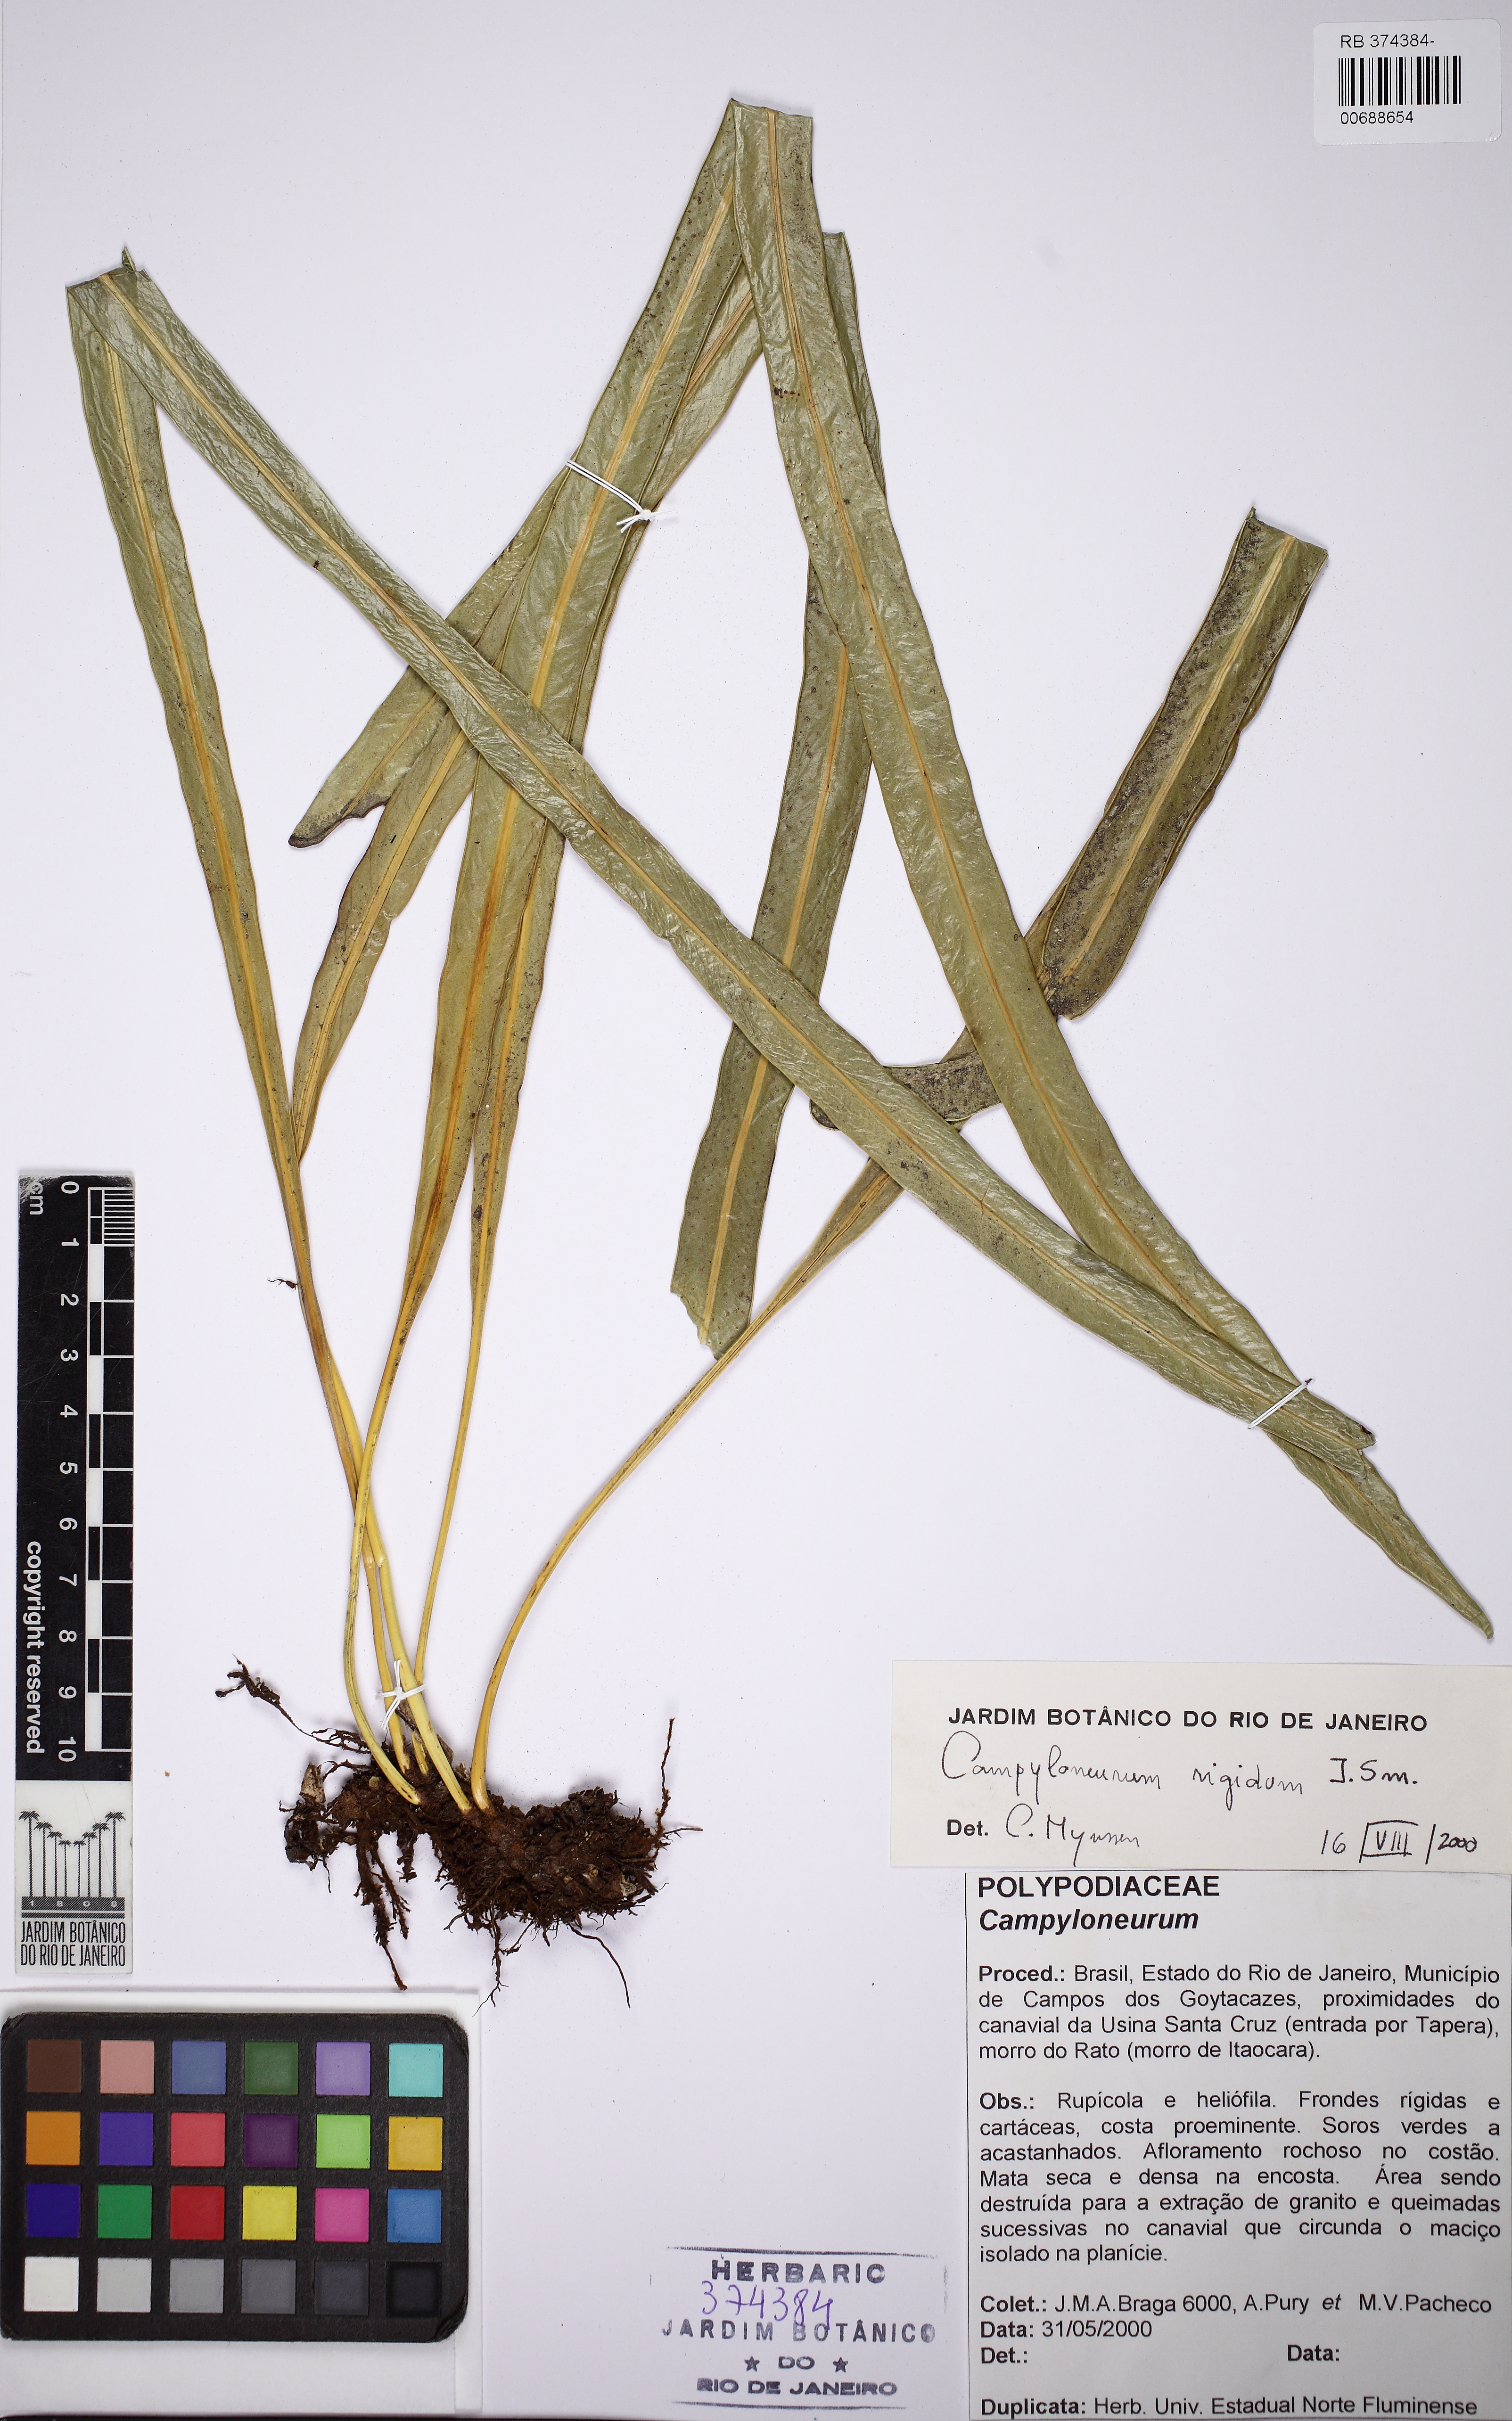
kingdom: Plantae
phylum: Tracheophyta
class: Polypodiopsida
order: Polypodiales
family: Polypodiaceae
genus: Campyloneurum
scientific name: Campyloneurum rigidum
